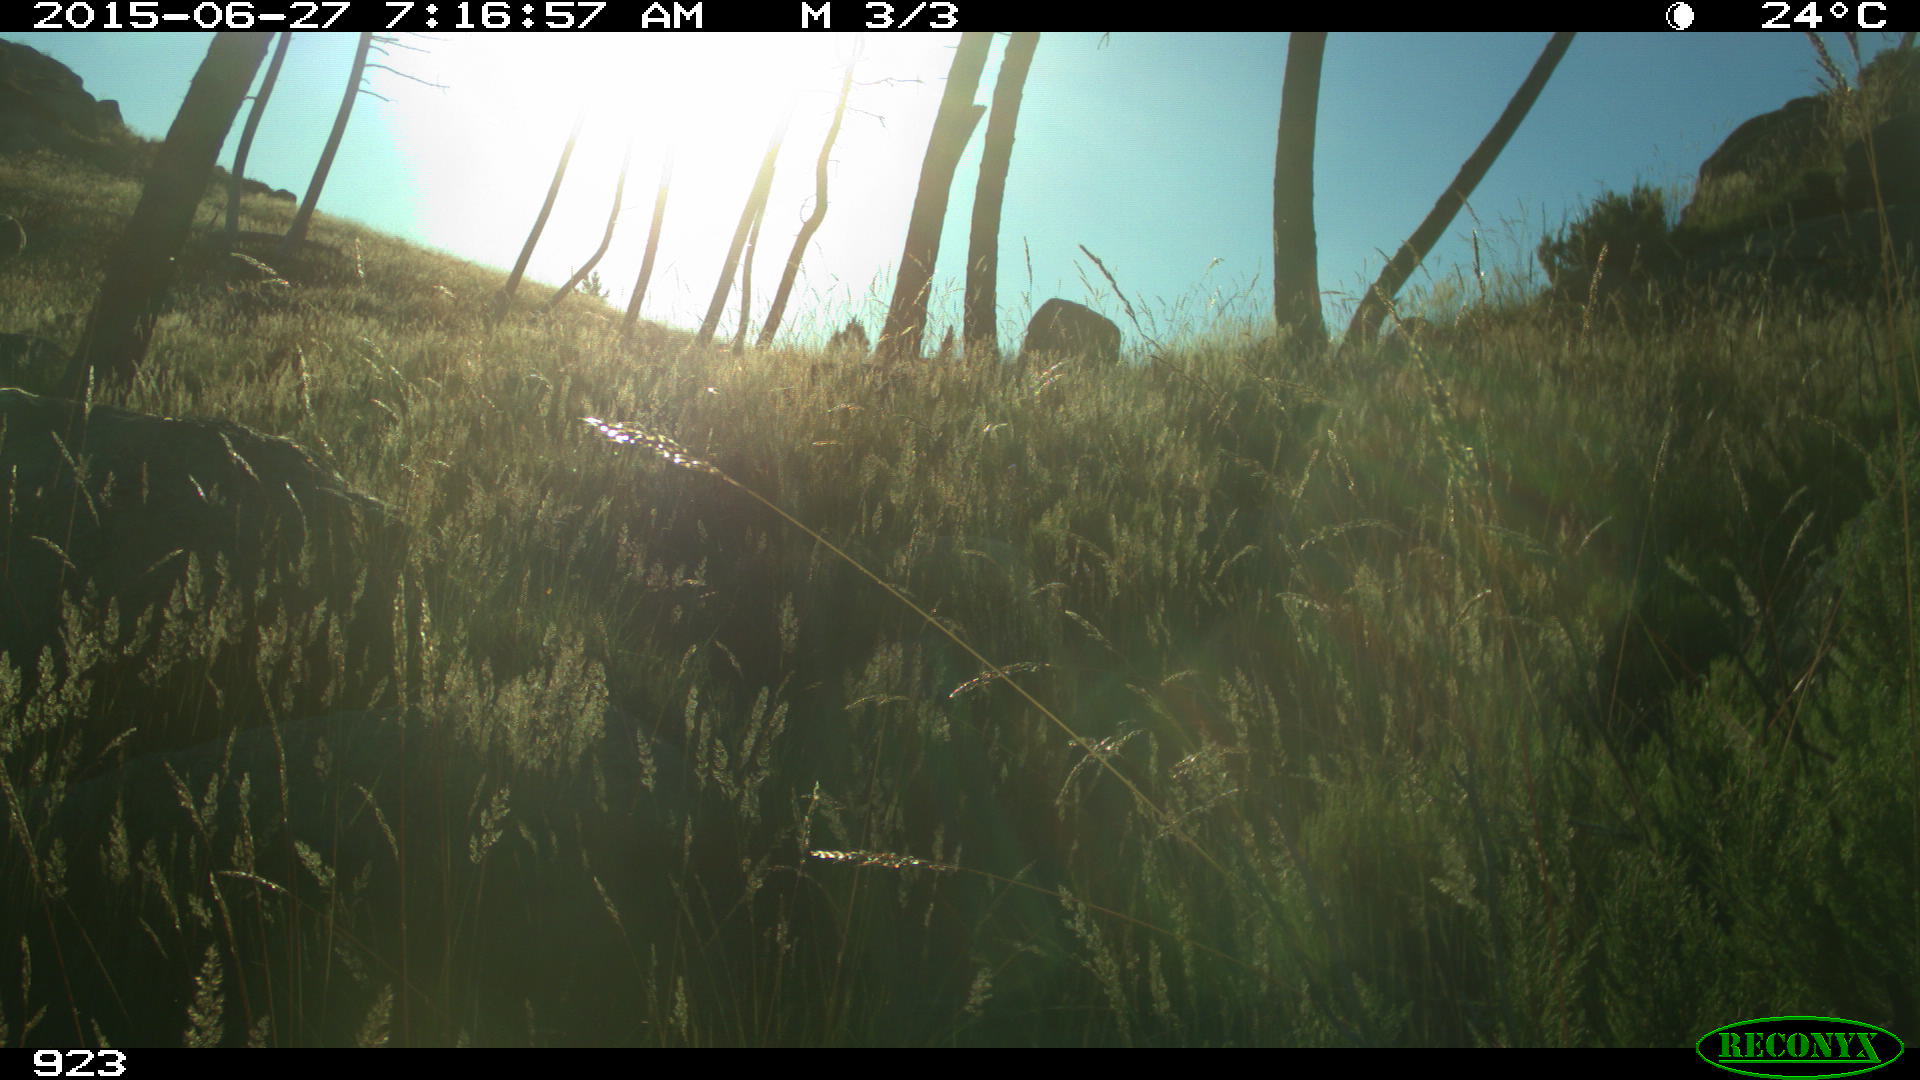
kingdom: Animalia
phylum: Chordata
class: Mammalia
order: Artiodactyla
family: Bovidae
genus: Bos
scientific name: Bos taurus
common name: Domesticated cattle
